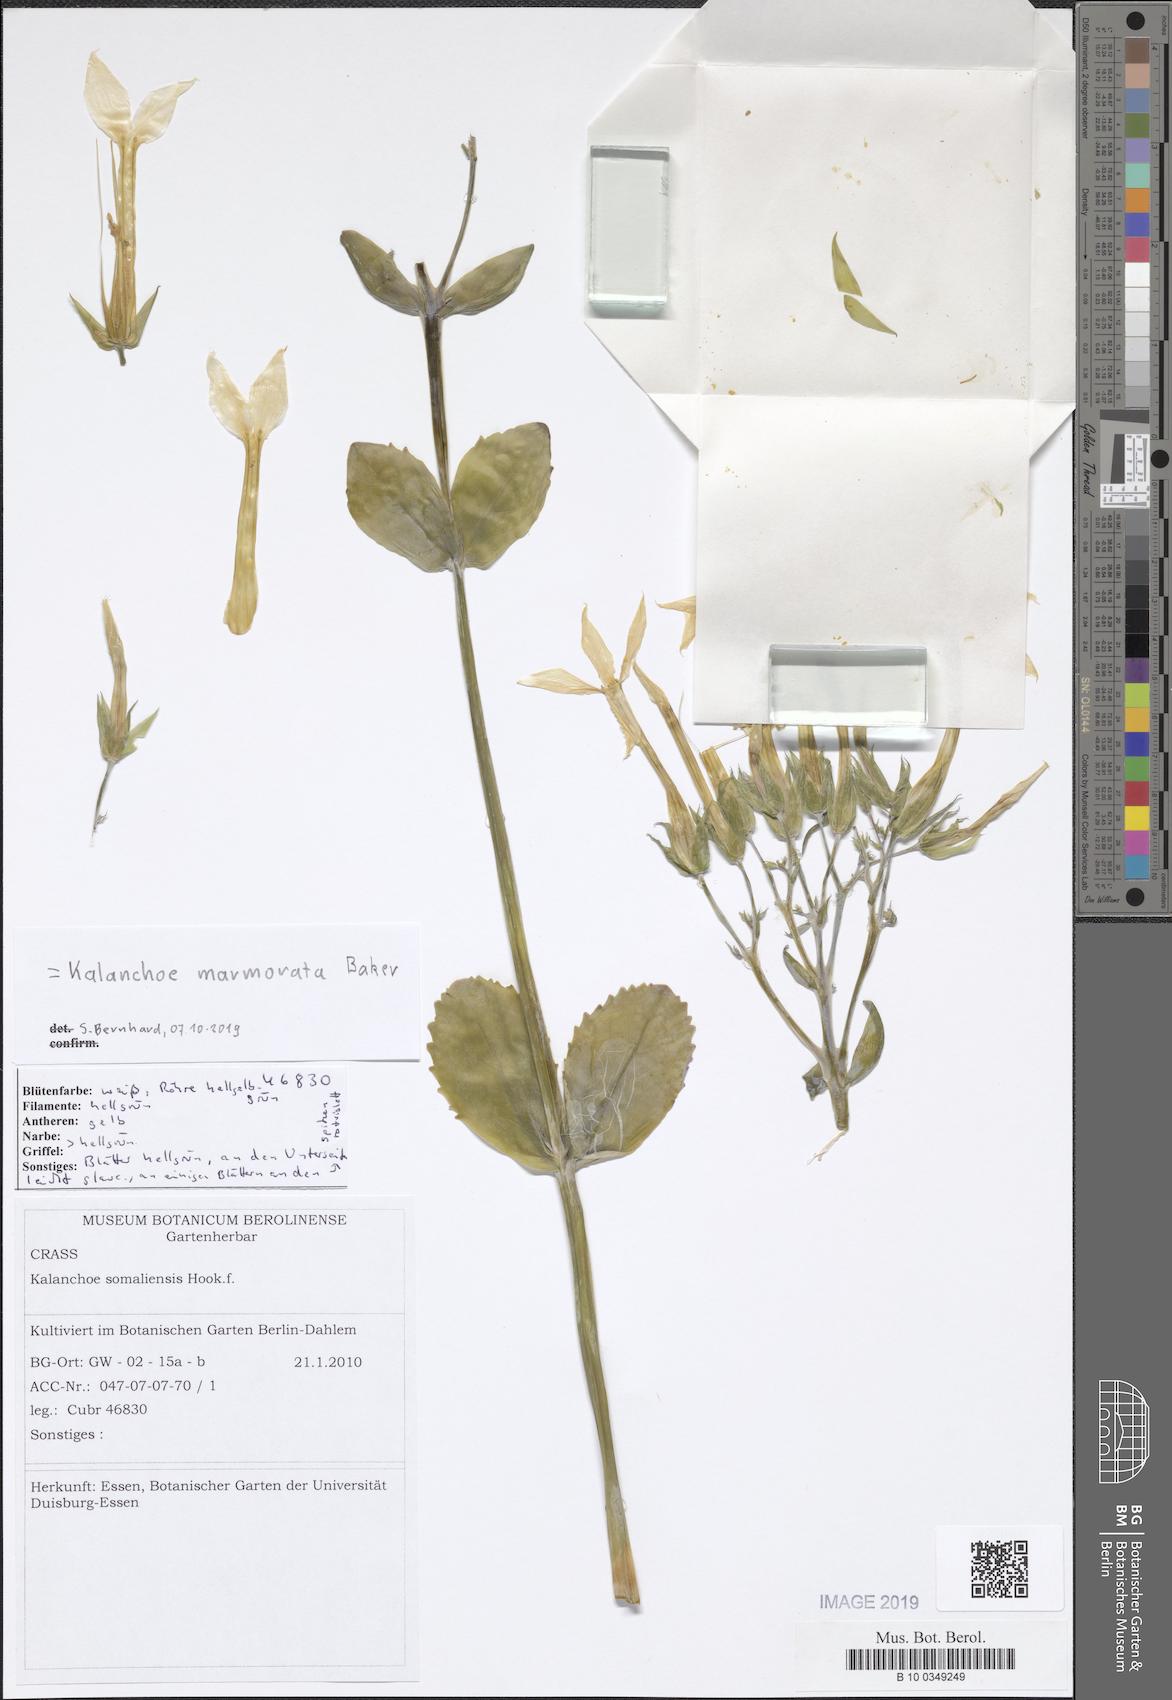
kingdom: Plantae
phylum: Tracheophyta
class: Magnoliopsida
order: Saxifragales
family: Crassulaceae
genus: Kalanchoe
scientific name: Kalanchoe marmorata
